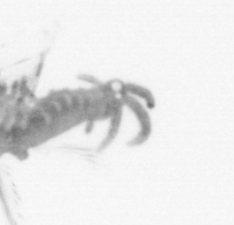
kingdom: Animalia
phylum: Arthropoda
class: Copepoda
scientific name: Copepoda
